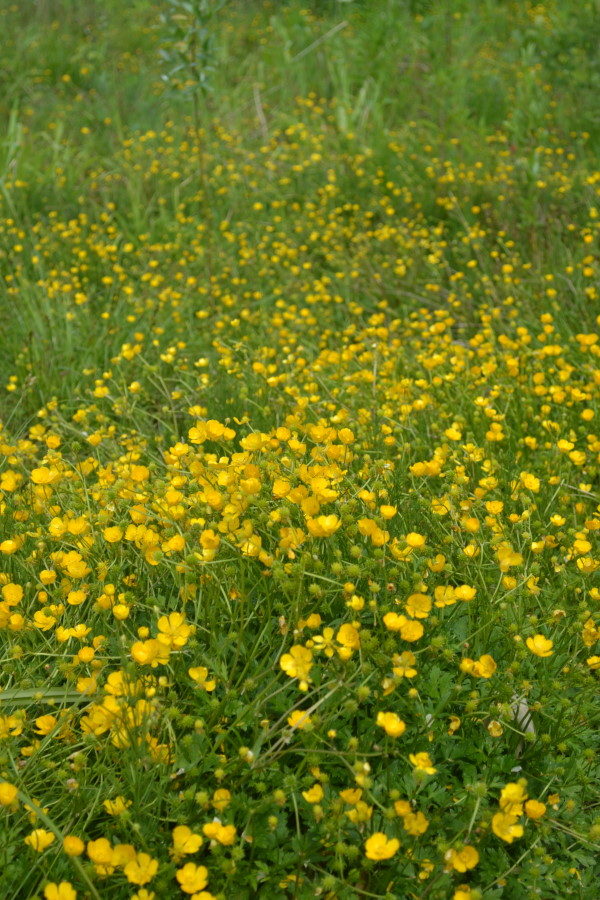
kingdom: Plantae
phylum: Tracheophyta
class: Magnoliopsida
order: Ranunculales
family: Ranunculaceae
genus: Ranunculus
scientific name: Ranunculus repens
